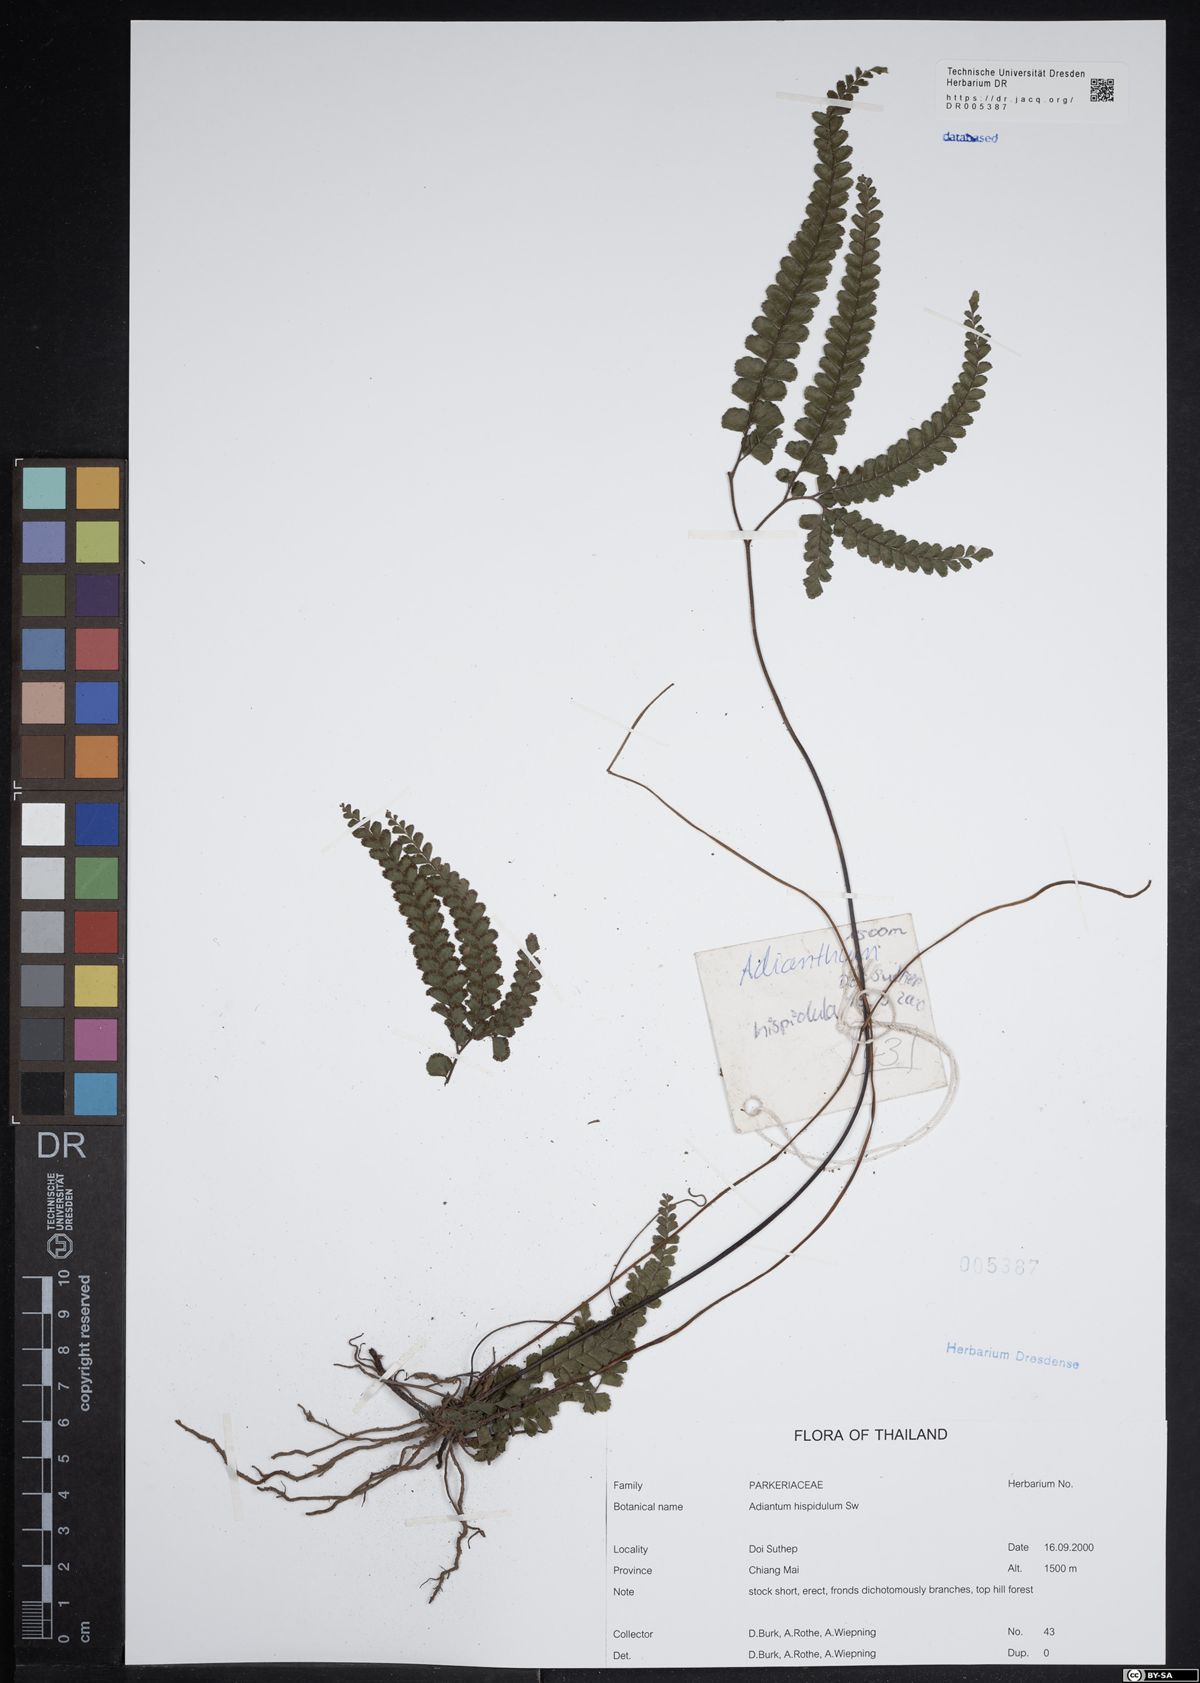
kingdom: Plantae
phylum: Tracheophyta
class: Polypodiopsida
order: Polypodiales
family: Pteridaceae
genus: Adiantum
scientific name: Adiantum hispidulum
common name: Rough maidenhair
